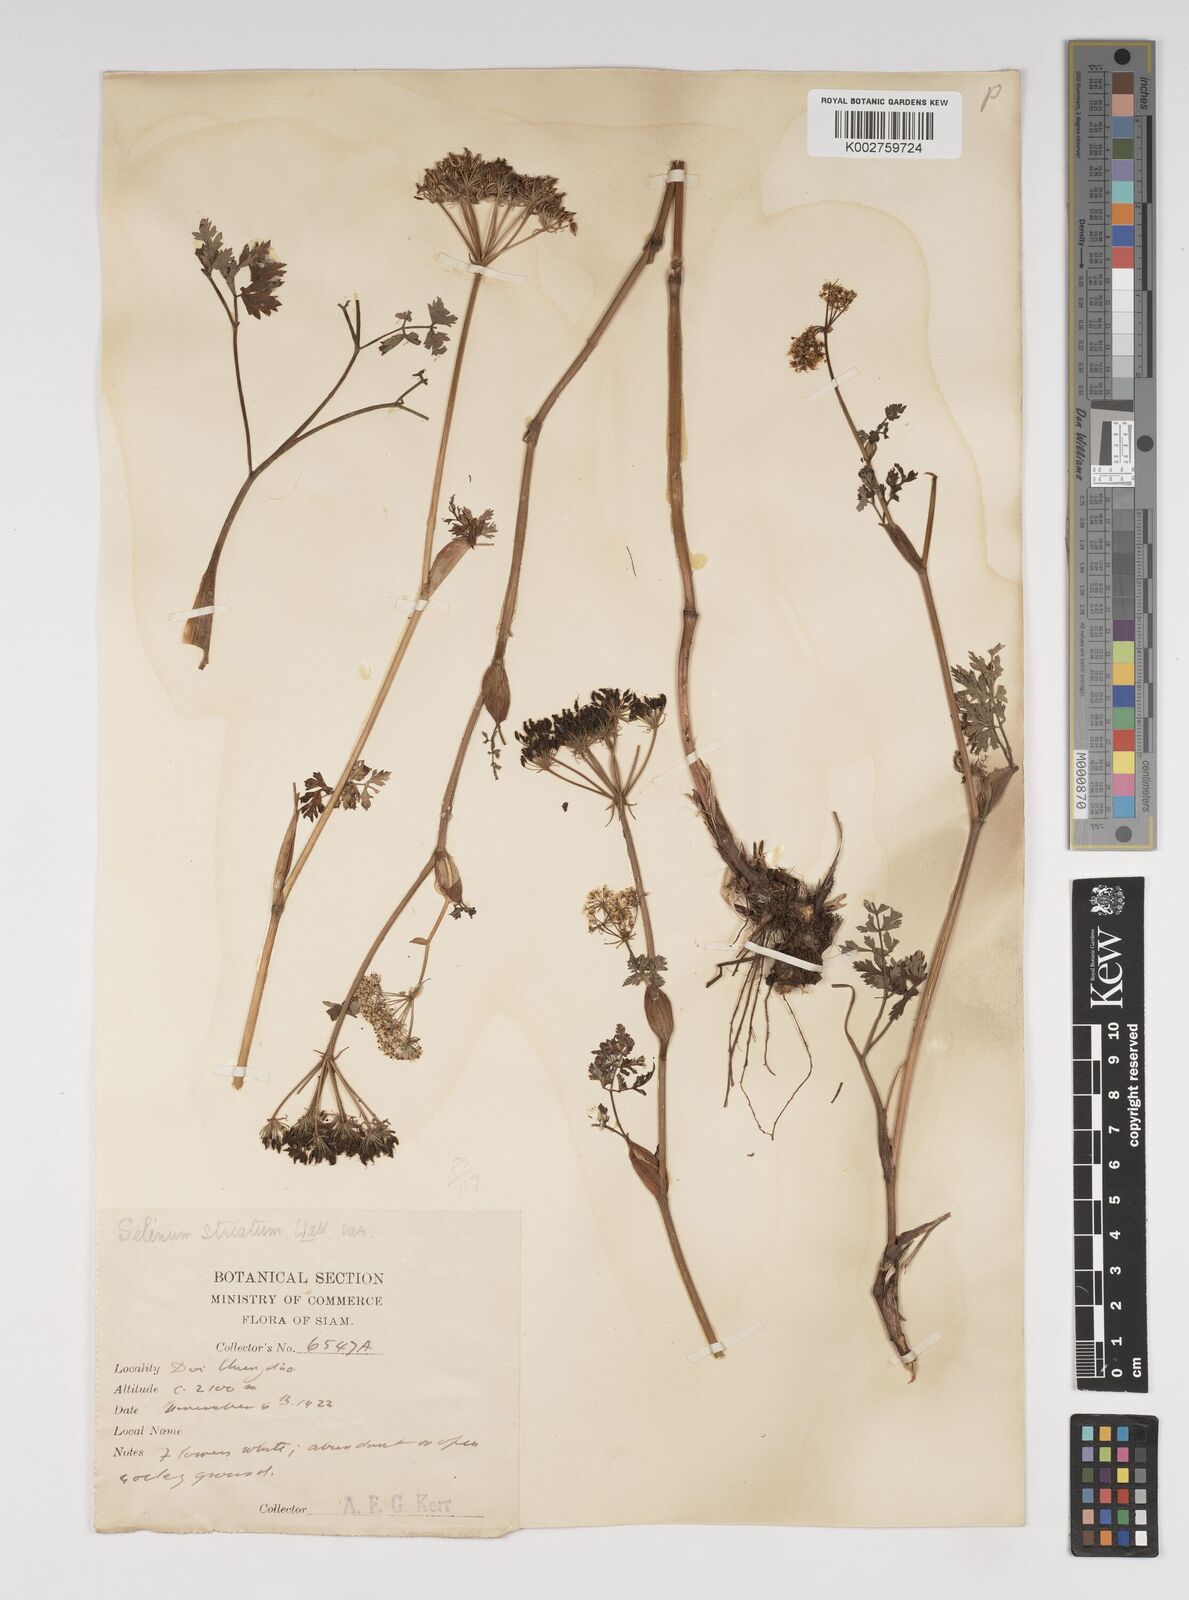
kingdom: Plantae
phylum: Tracheophyta
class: Magnoliopsida
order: Apiales
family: Apiaceae
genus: Oreocome
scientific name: Oreocome striata
